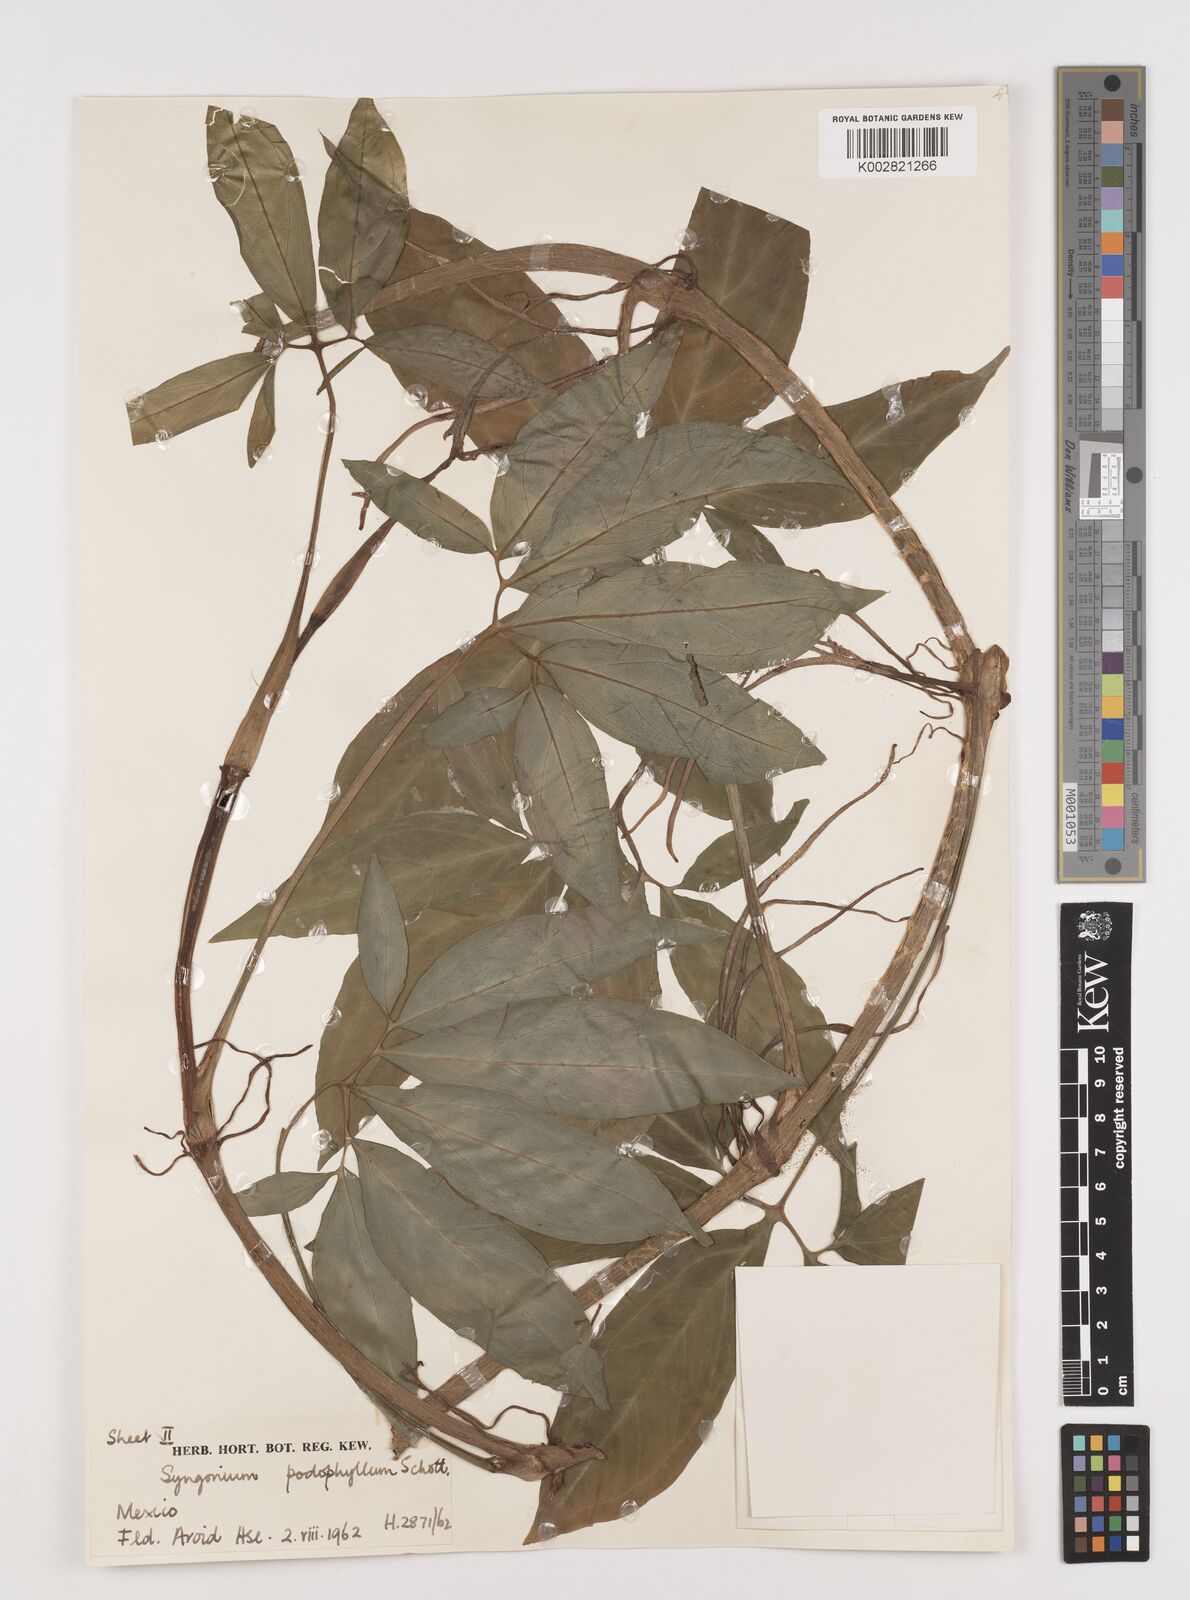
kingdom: Plantae
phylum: Tracheophyta
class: Liliopsida
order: Alismatales
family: Araceae
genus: Syngonium
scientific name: Syngonium podophyllum
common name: American evergreen
